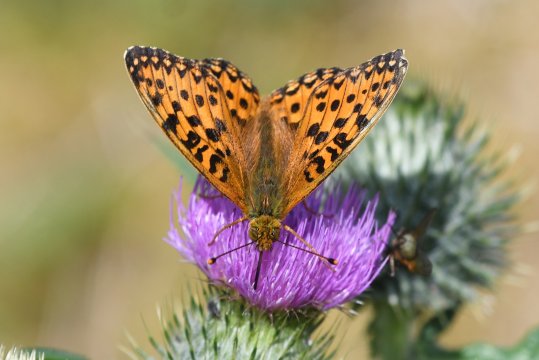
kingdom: Animalia
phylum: Arthropoda
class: Insecta
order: Lepidoptera
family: Nymphalidae
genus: Speyeria
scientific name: Speyeria aglaja
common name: Dark Green Fritillary
